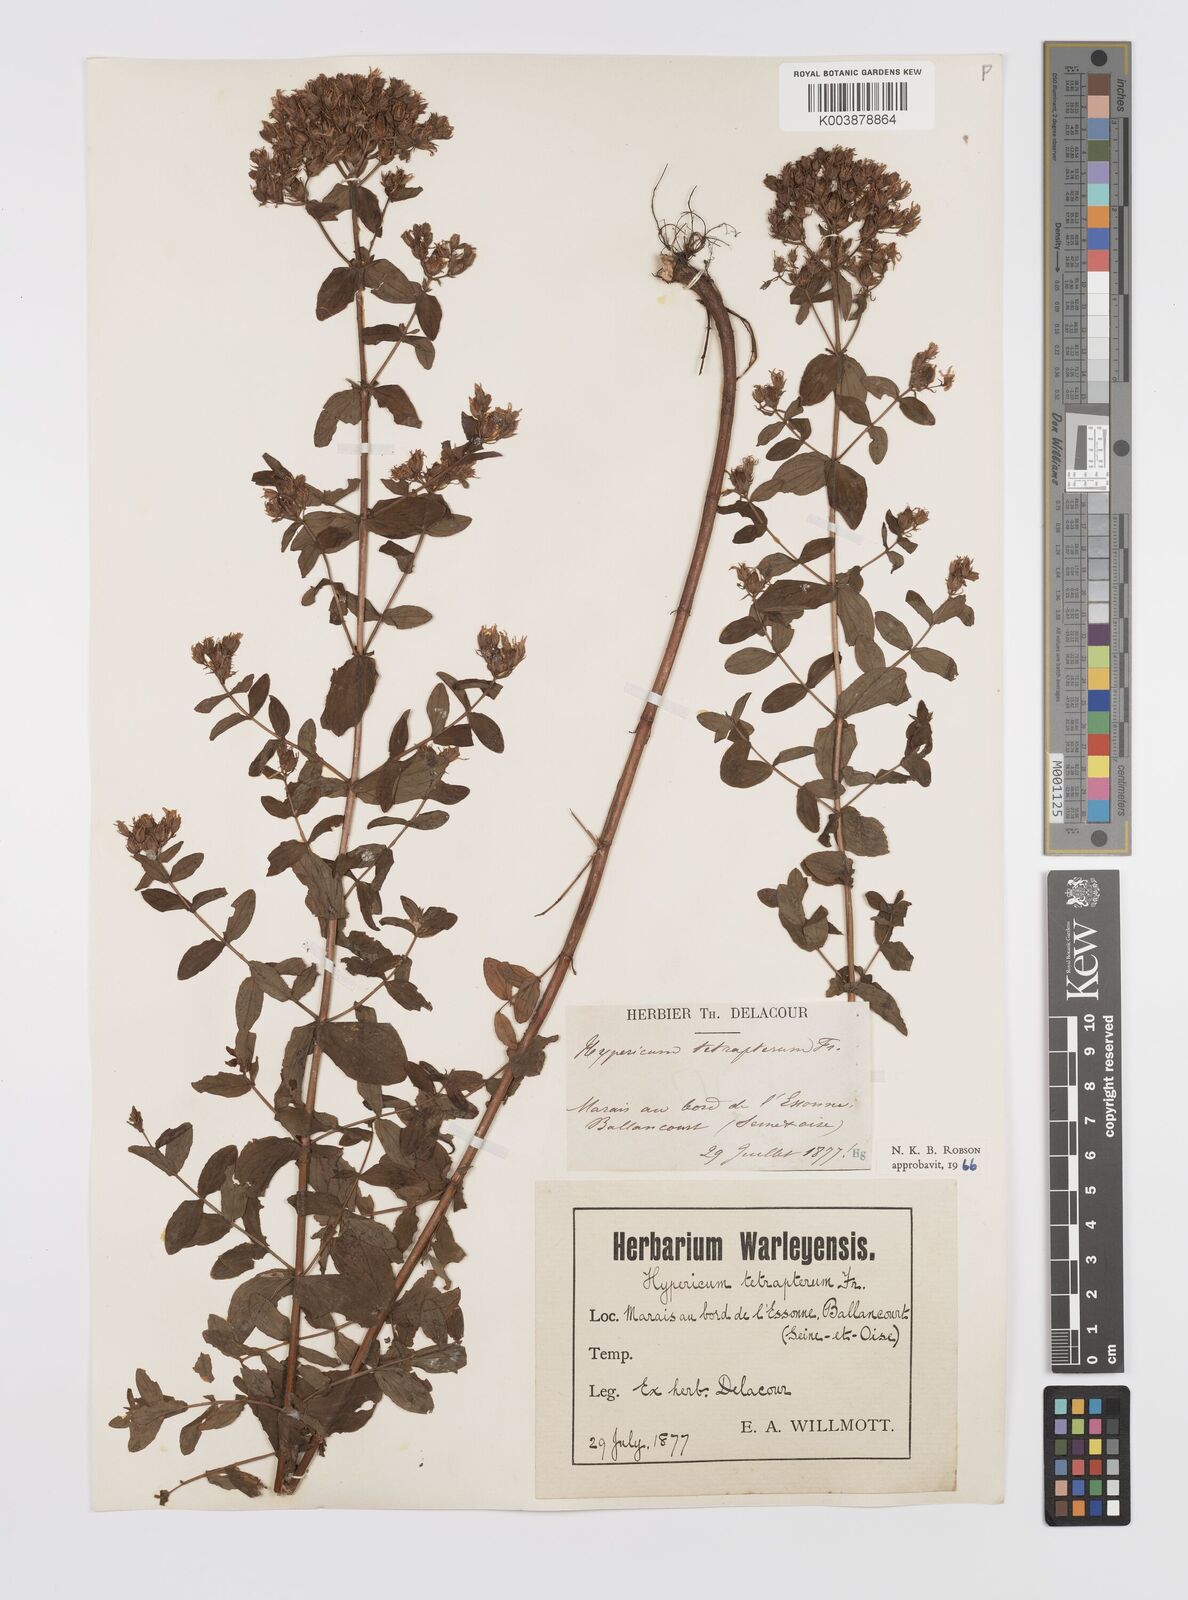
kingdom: Plantae
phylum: Tracheophyta
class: Magnoliopsida
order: Malpighiales
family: Hypericaceae
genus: Hypericum
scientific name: Hypericum tetrapterum
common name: Square-stalked st. john's-wort
